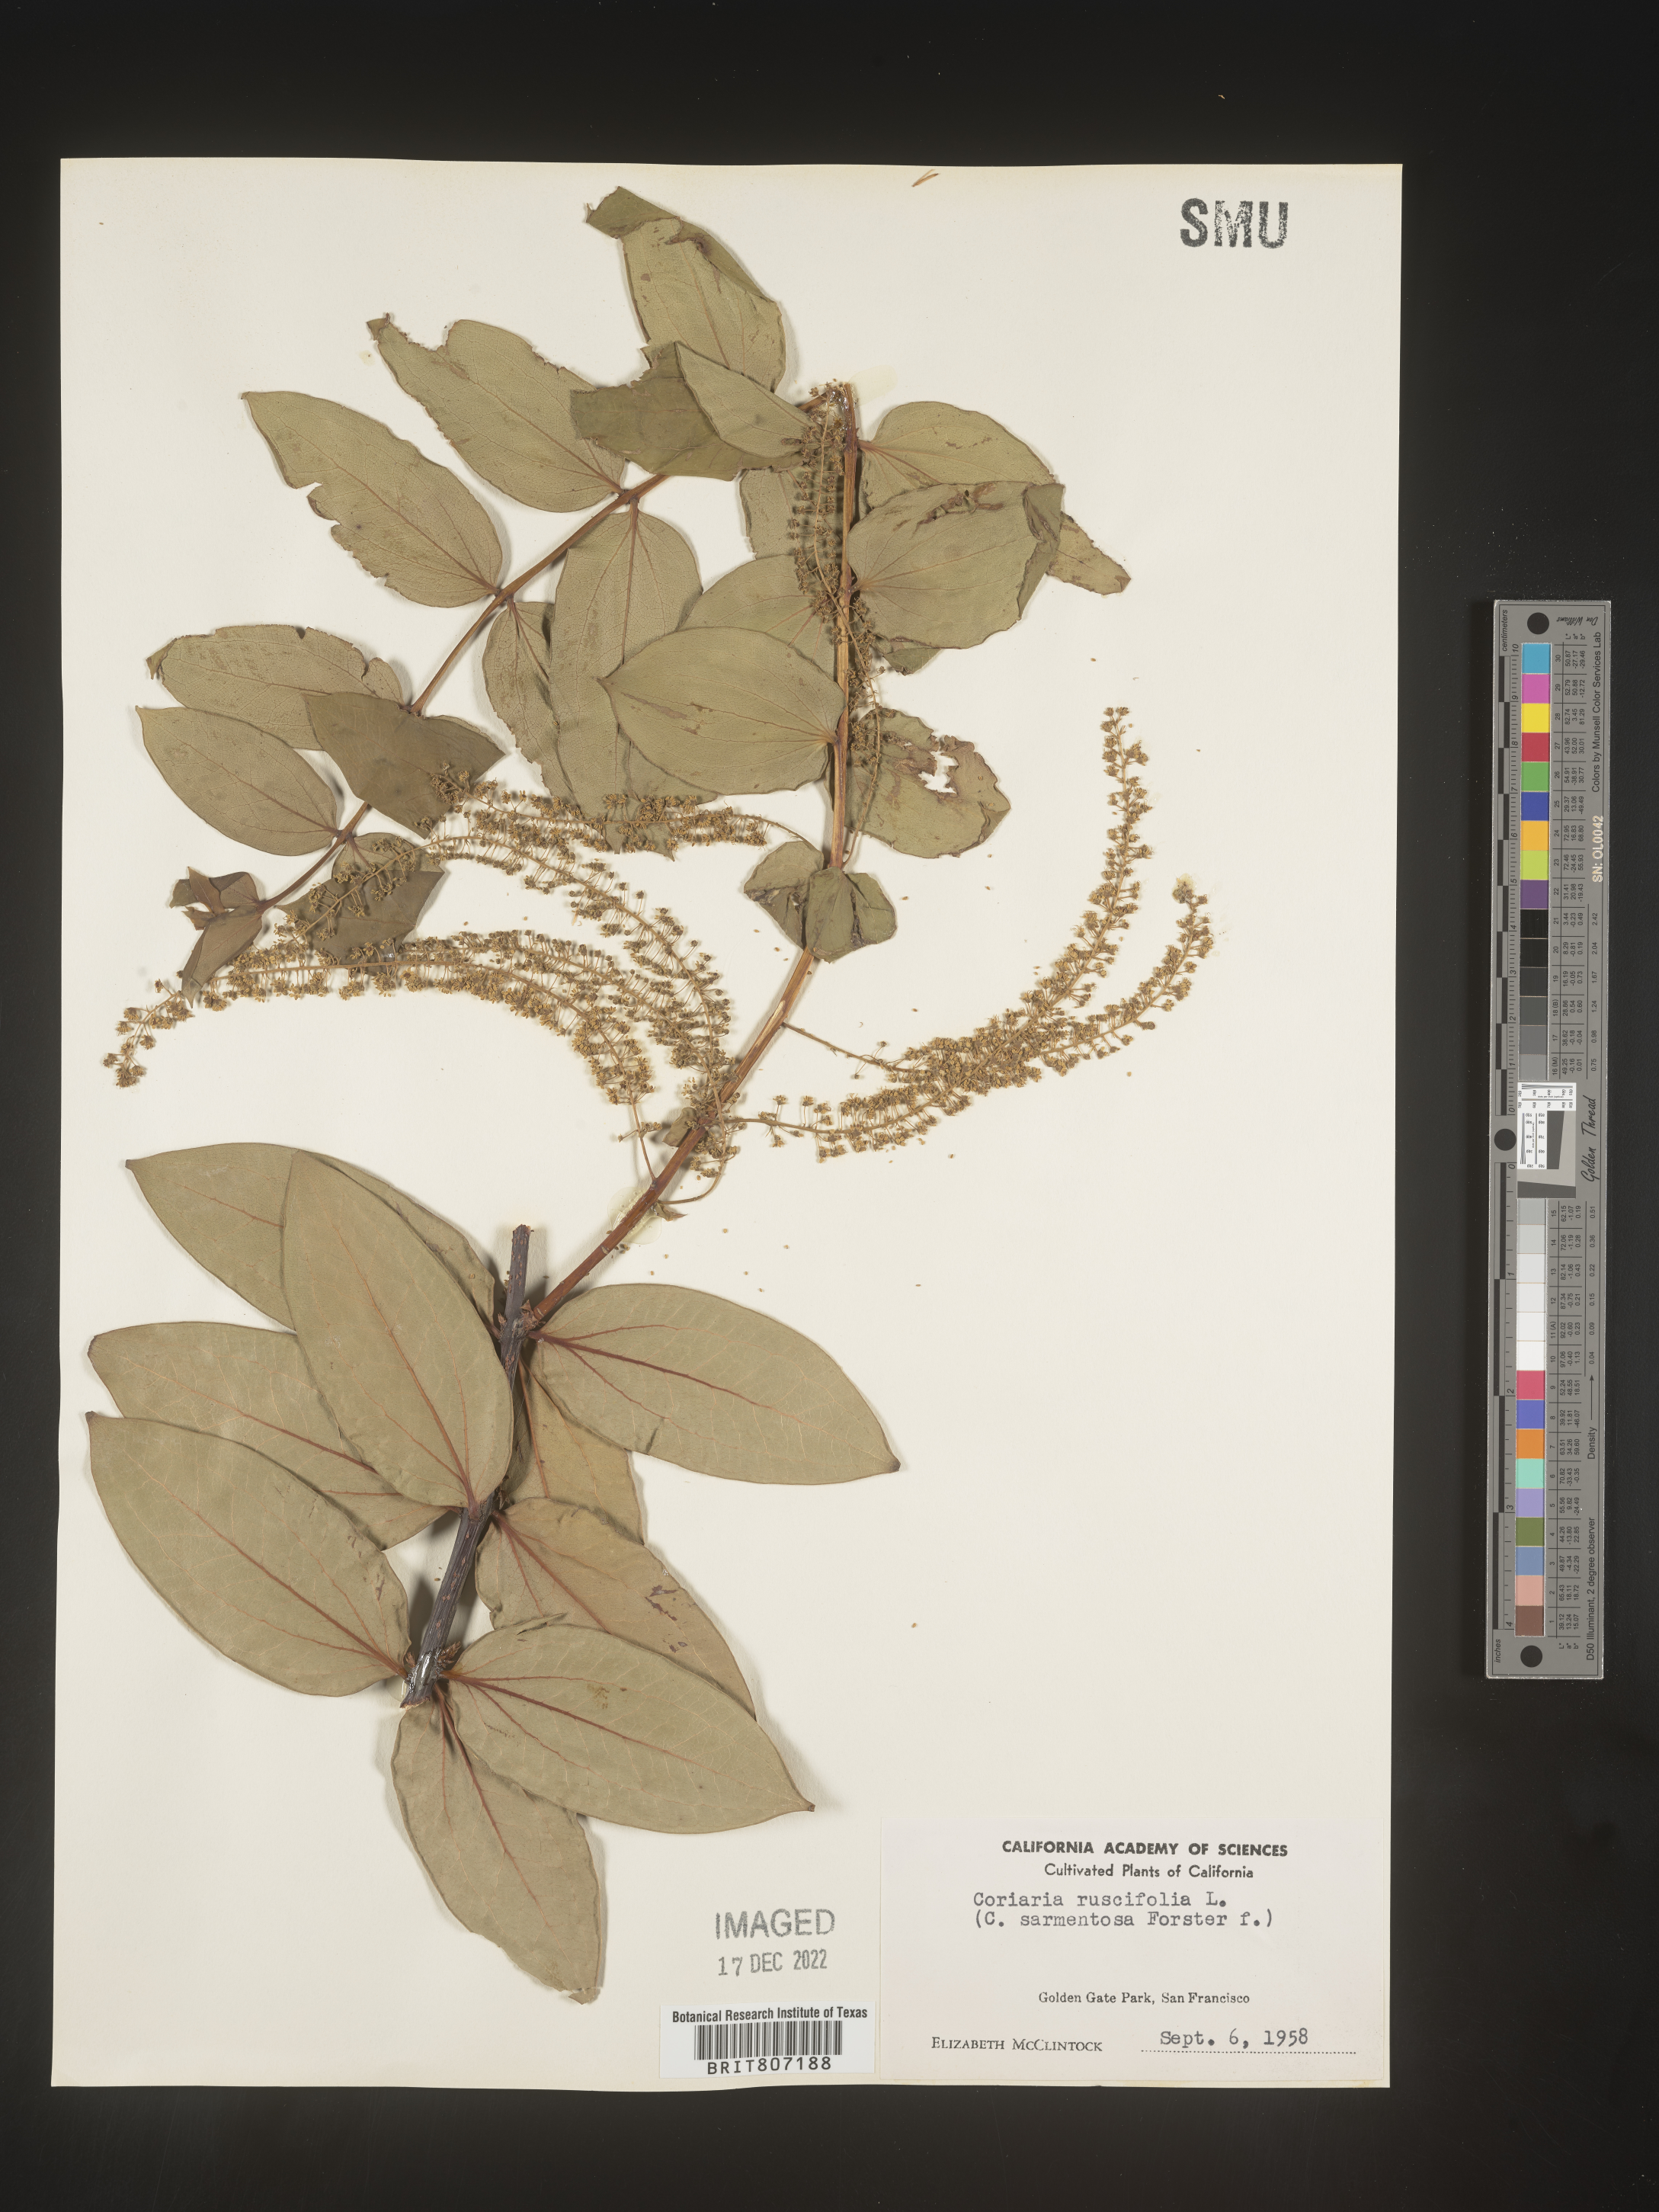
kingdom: Plantae
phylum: Tracheophyta
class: Magnoliopsida
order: Cucurbitales
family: Coriariaceae
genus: Coriaria
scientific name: Coriaria
